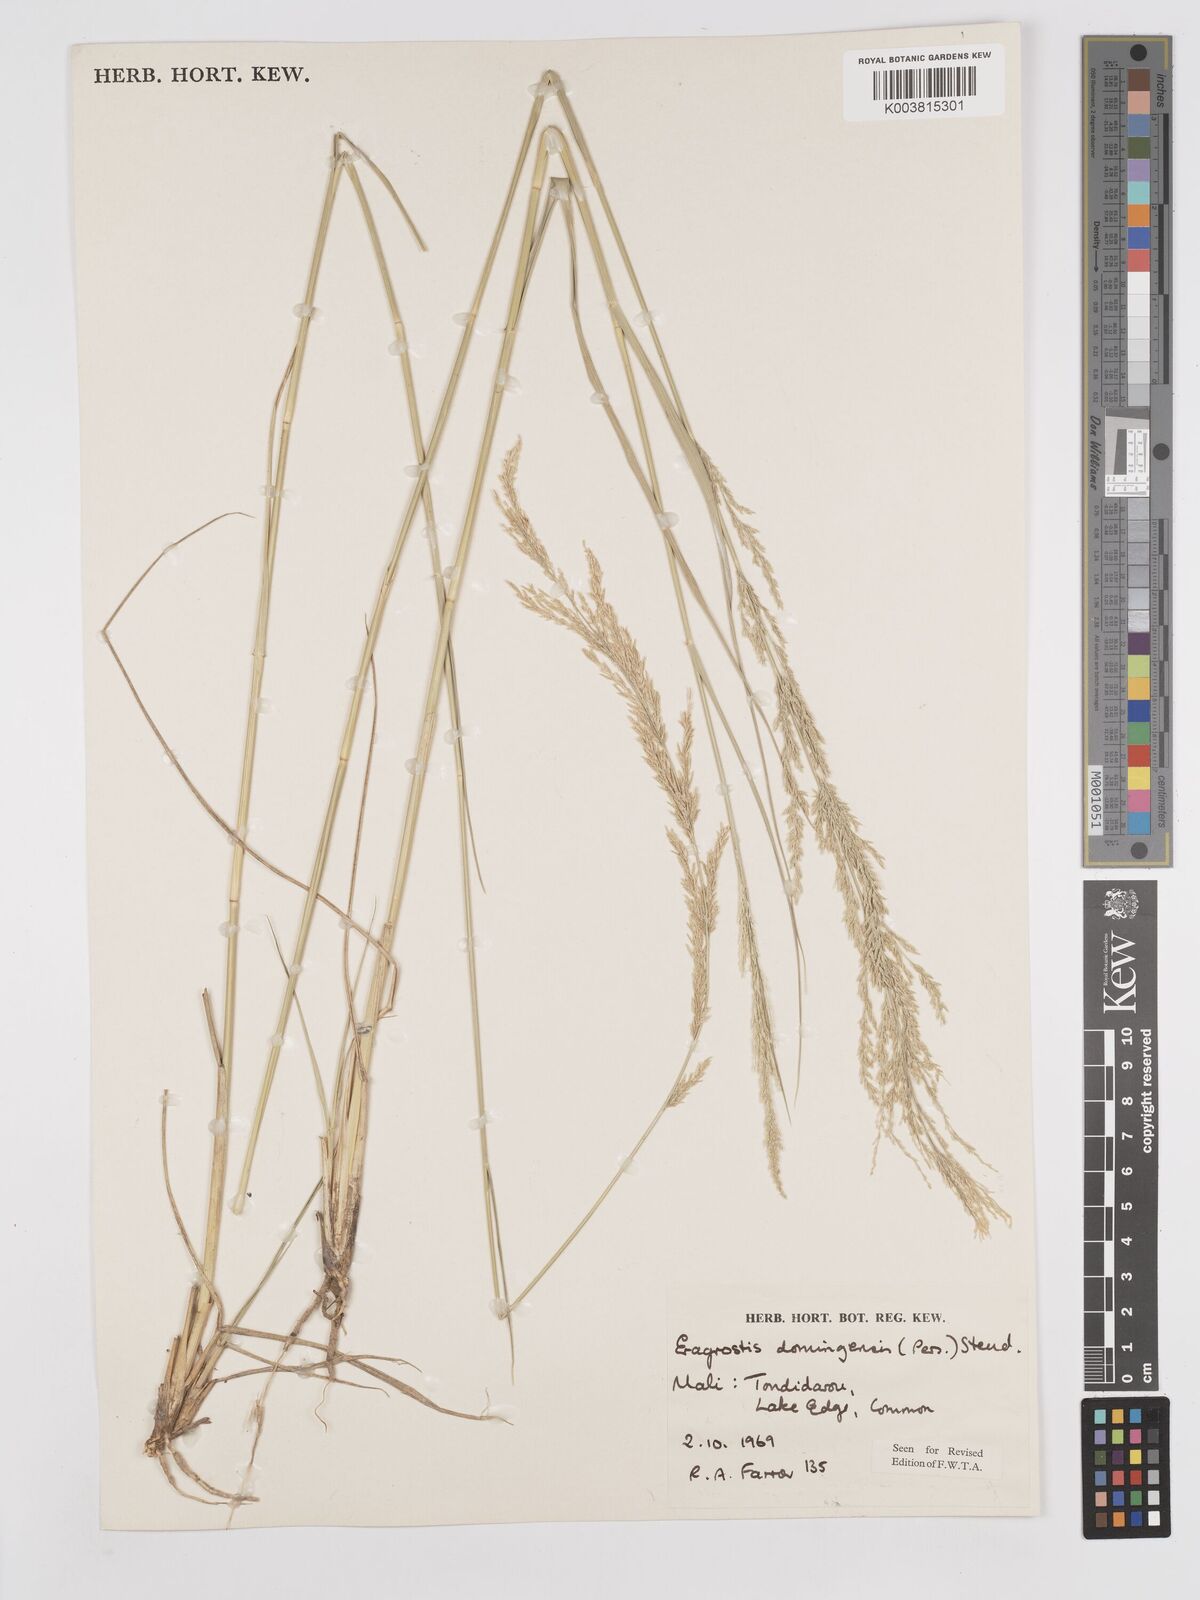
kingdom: Plantae
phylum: Tracheophyta
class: Liliopsida
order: Poales
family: Poaceae
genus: Eragrostis
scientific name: Eragrostis prolifera
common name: Dominican lovegrass
